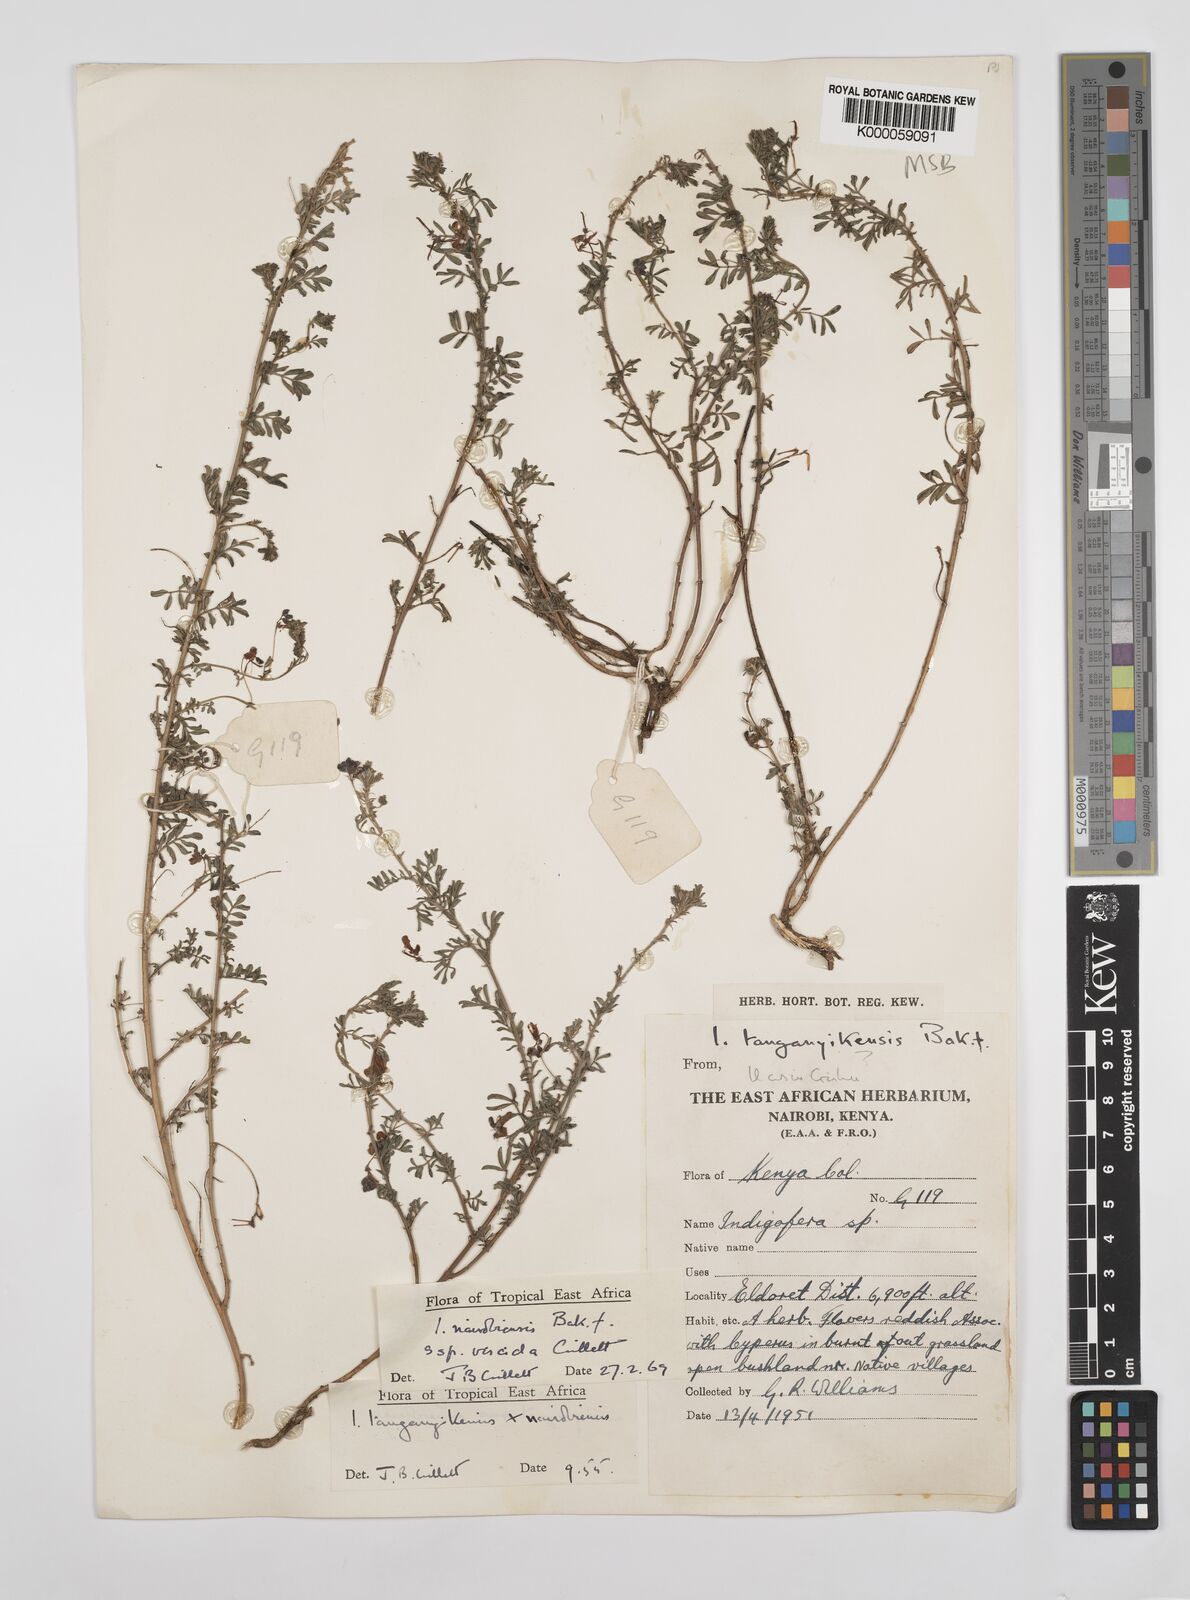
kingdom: Plantae
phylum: Tracheophyta
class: Magnoliopsida
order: Fabales
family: Fabaceae
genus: Indigofera
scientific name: Indigofera nairobiensis
